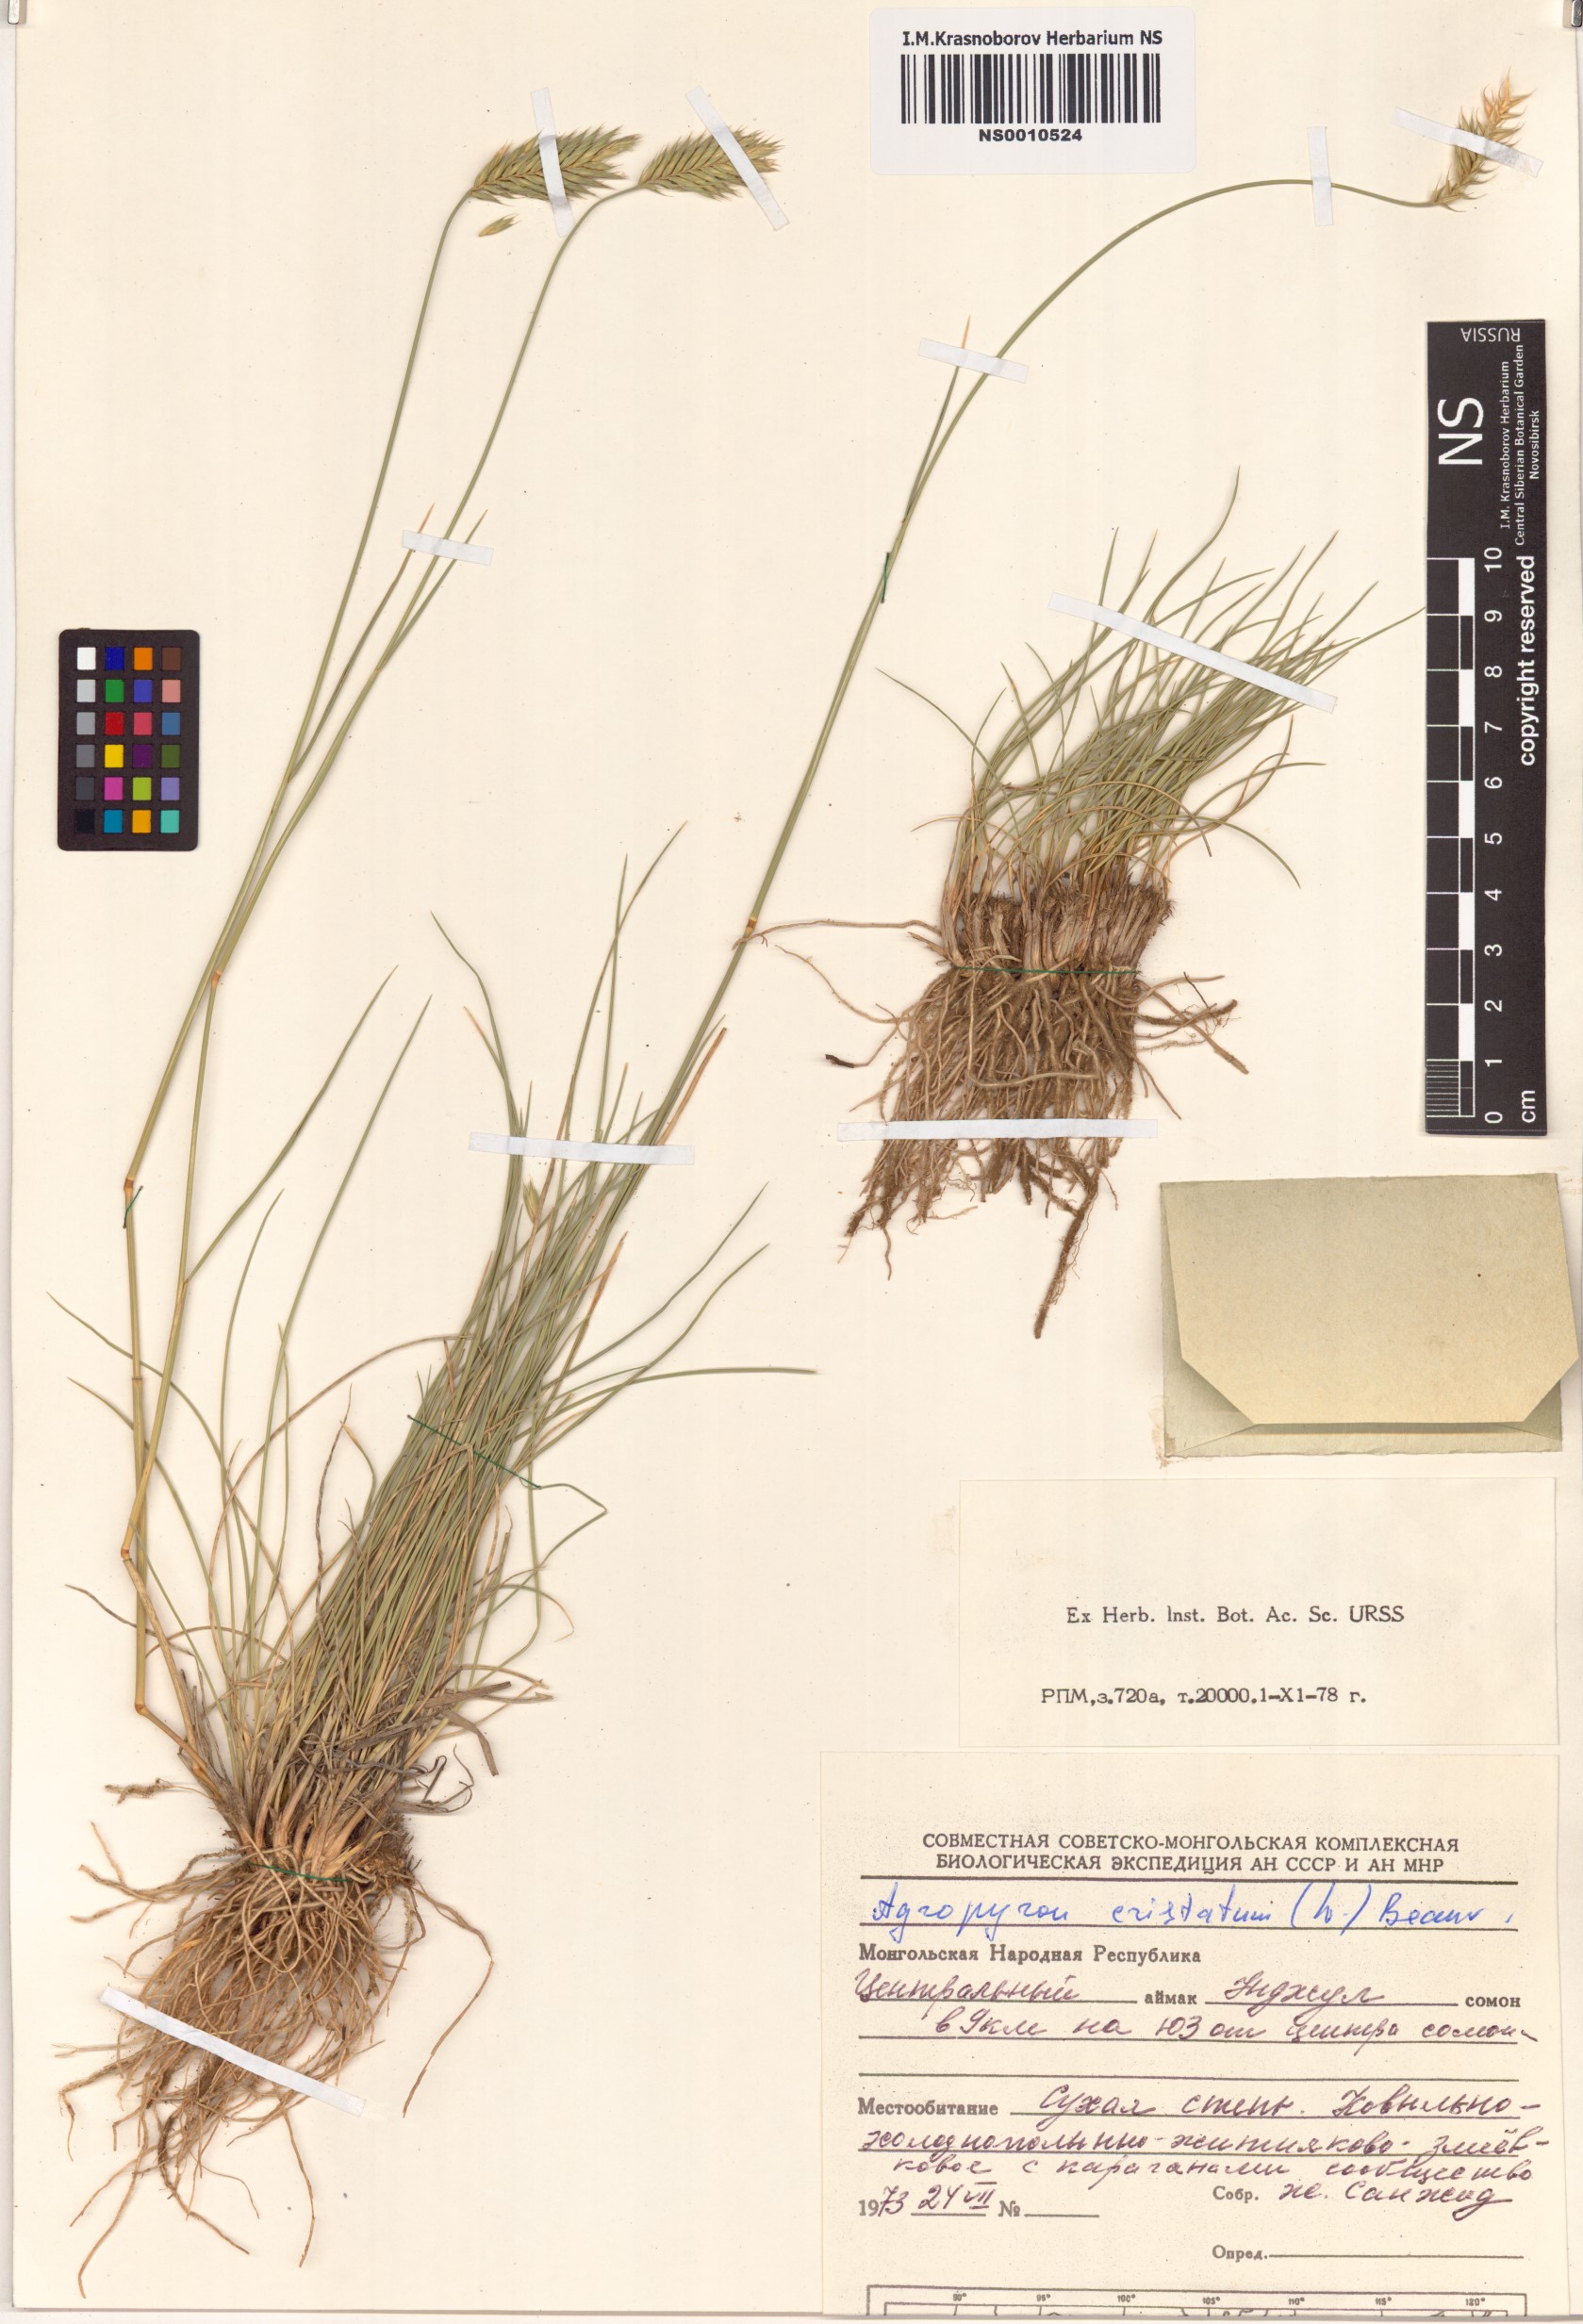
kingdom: Plantae
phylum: Tracheophyta
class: Liliopsida
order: Poales
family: Poaceae
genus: Agropyron
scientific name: Agropyron cristatum
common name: Crested wheatgrass
